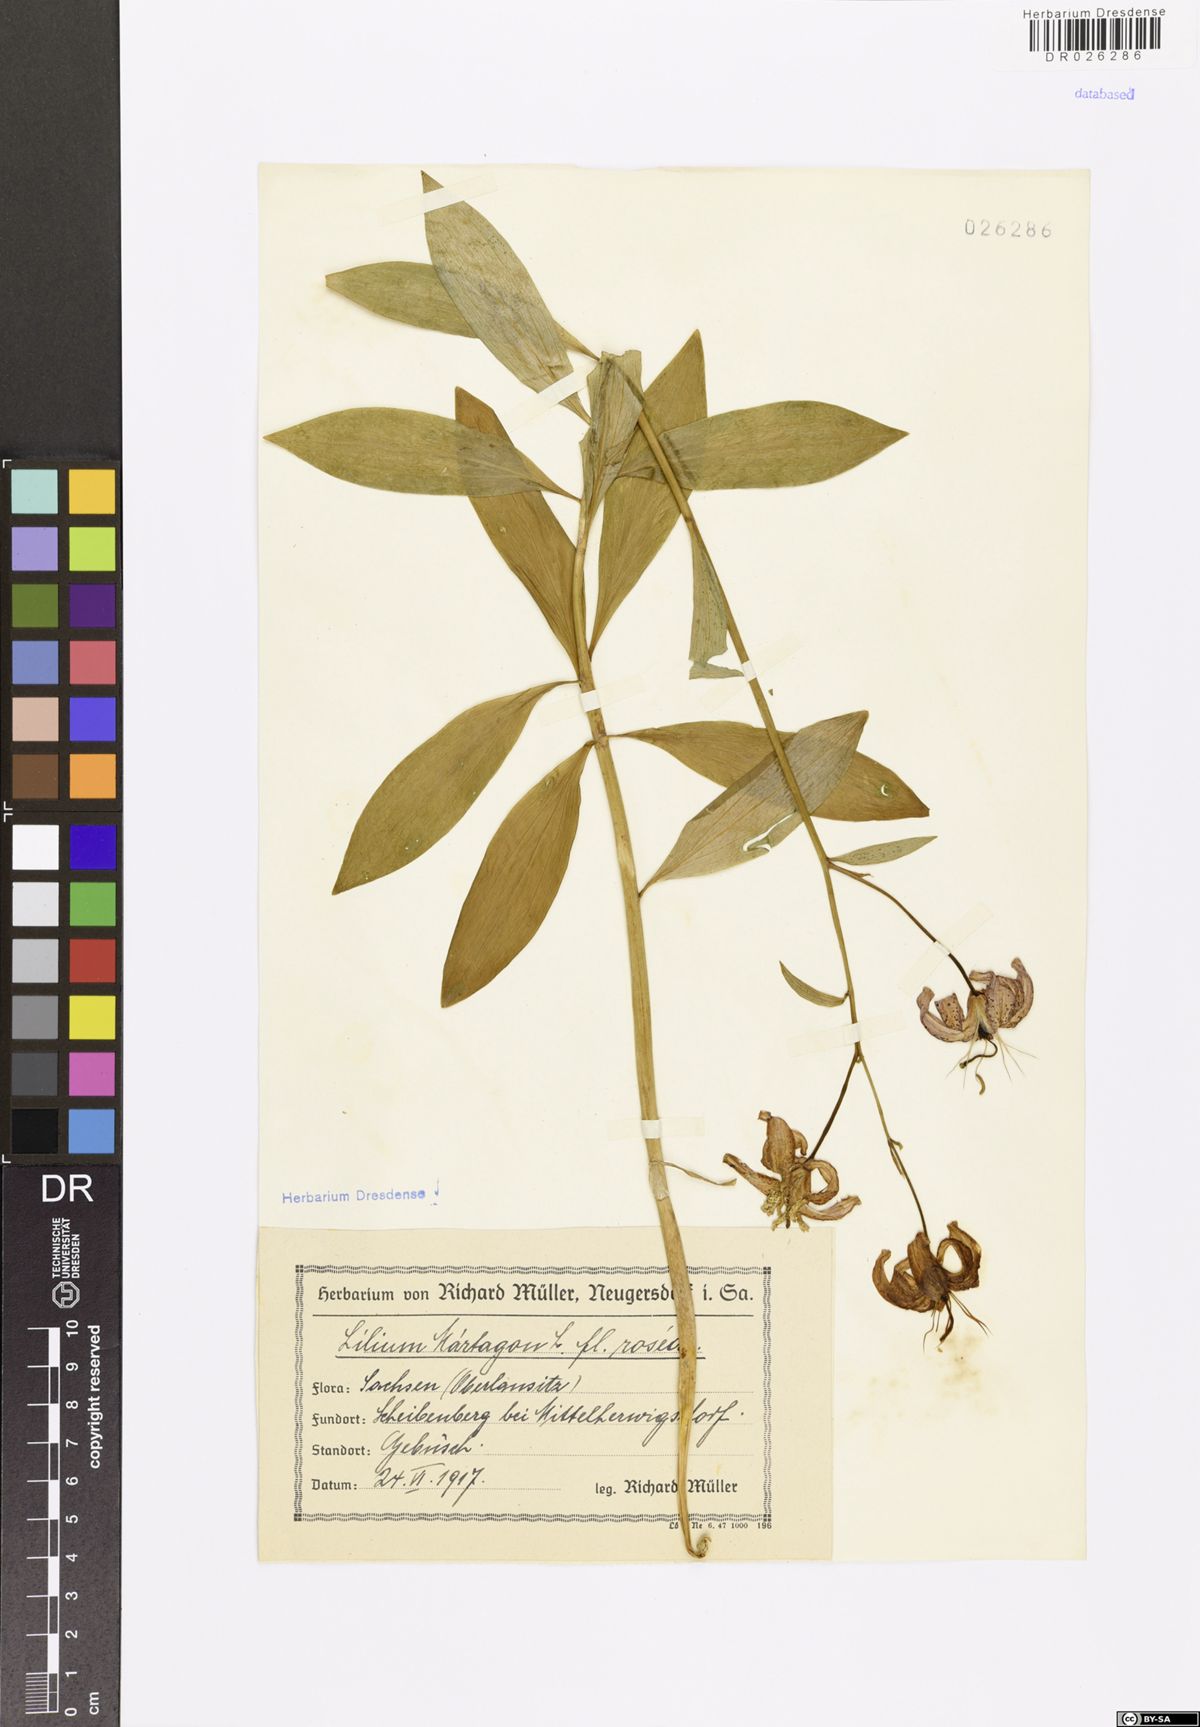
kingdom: Plantae
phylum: Tracheophyta
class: Liliopsida
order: Liliales
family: Liliaceae
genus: Lilium
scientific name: Lilium martagon
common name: Martagon lily
